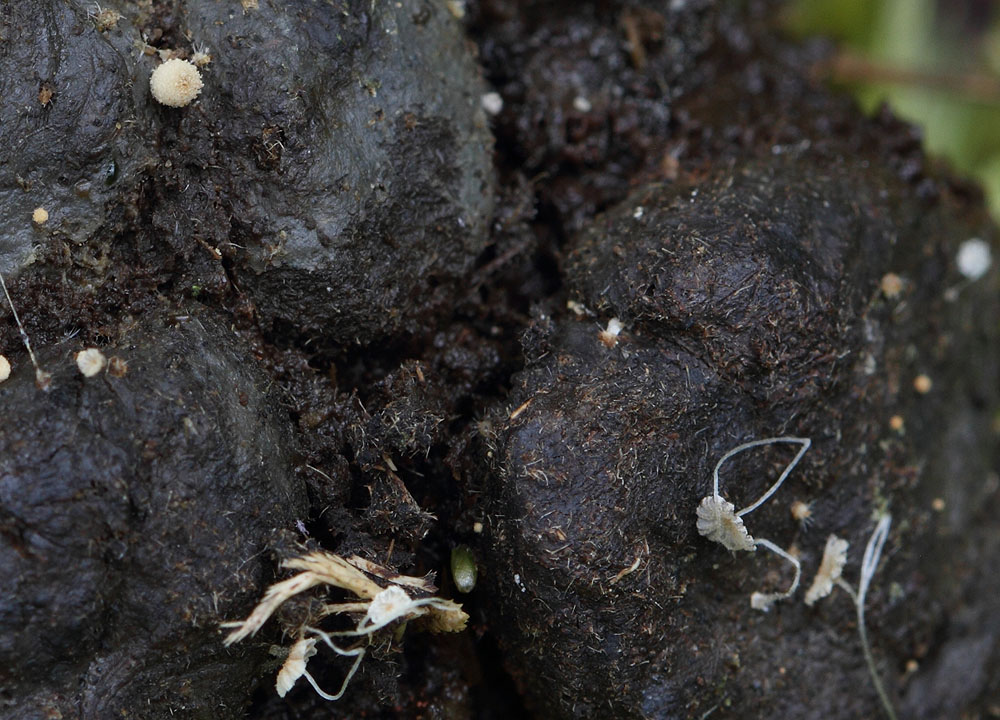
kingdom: Fungi
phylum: Basidiomycota
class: Agaricomycetes
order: Agaricales
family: Psathyrellaceae
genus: Coprinellus
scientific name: Coprinellus pusillulus
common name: lillebitte blækhat
